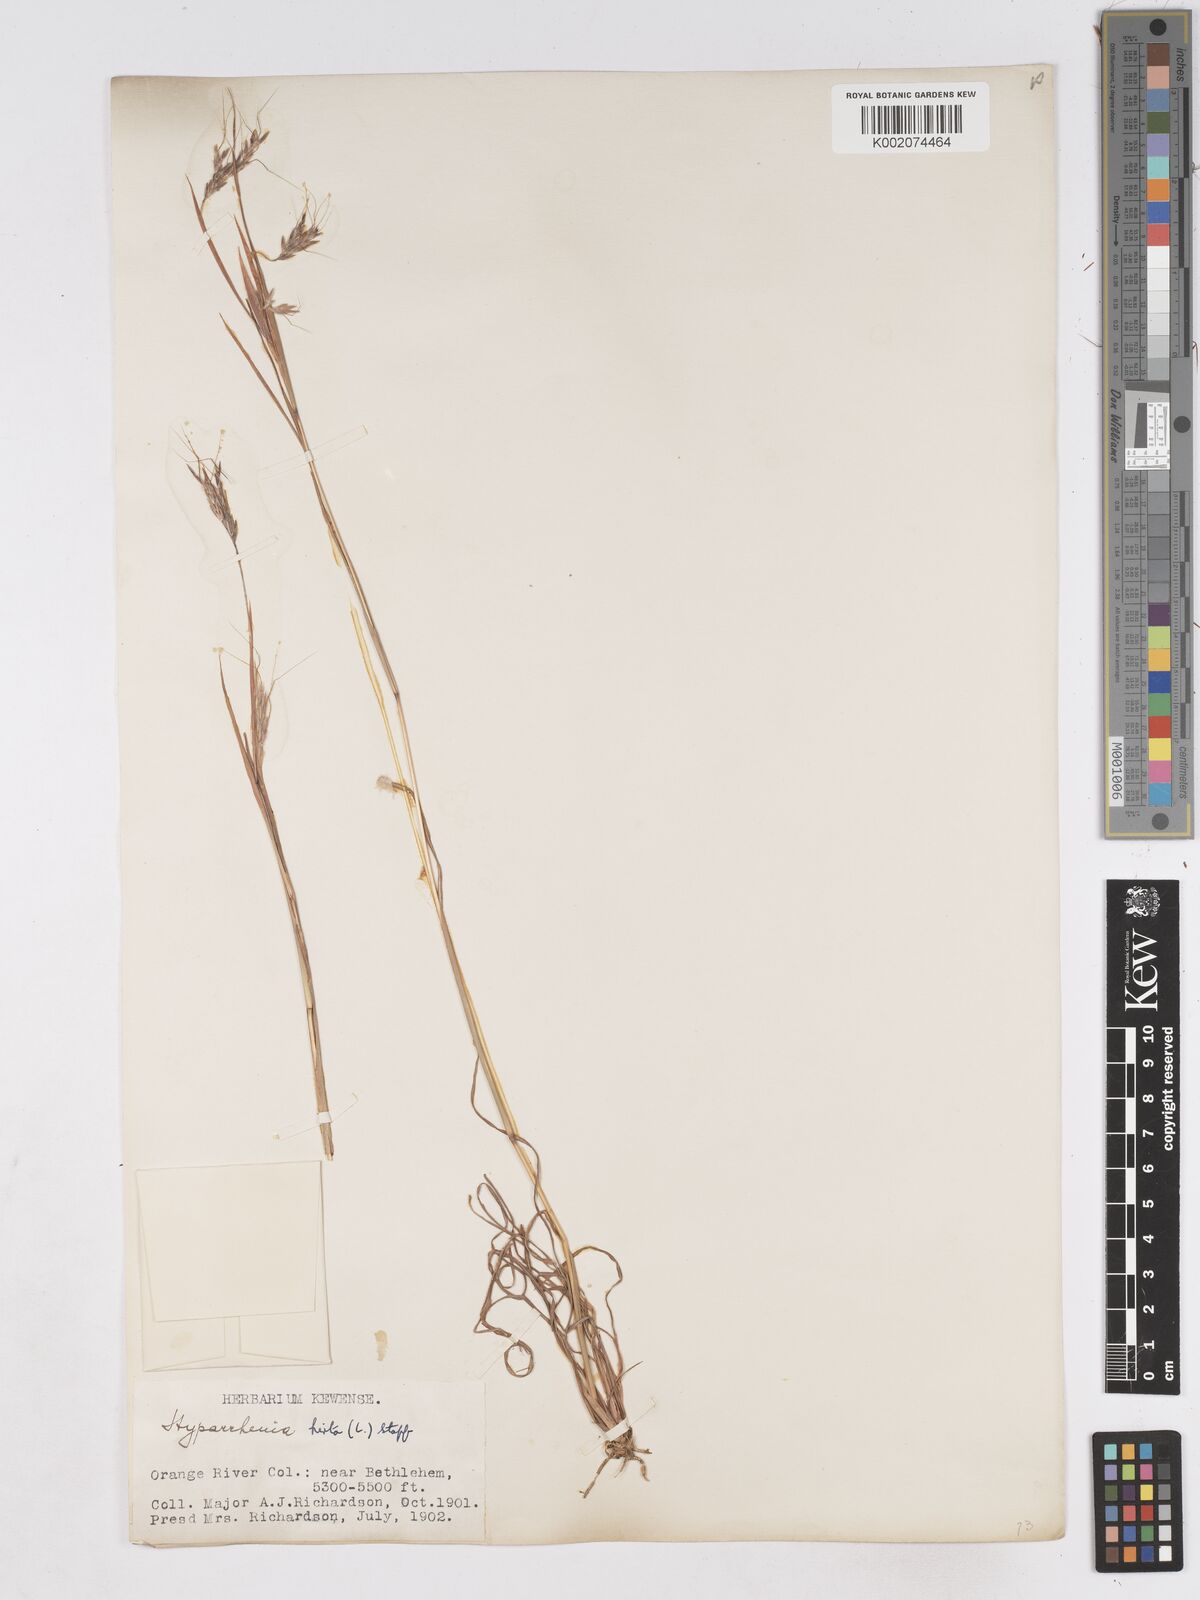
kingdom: Plantae
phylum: Tracheophyta
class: Liliopsida
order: Poales
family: Poaceae
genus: Hyparrhenia
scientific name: Hyparrhenia hirta
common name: Thatching grass
